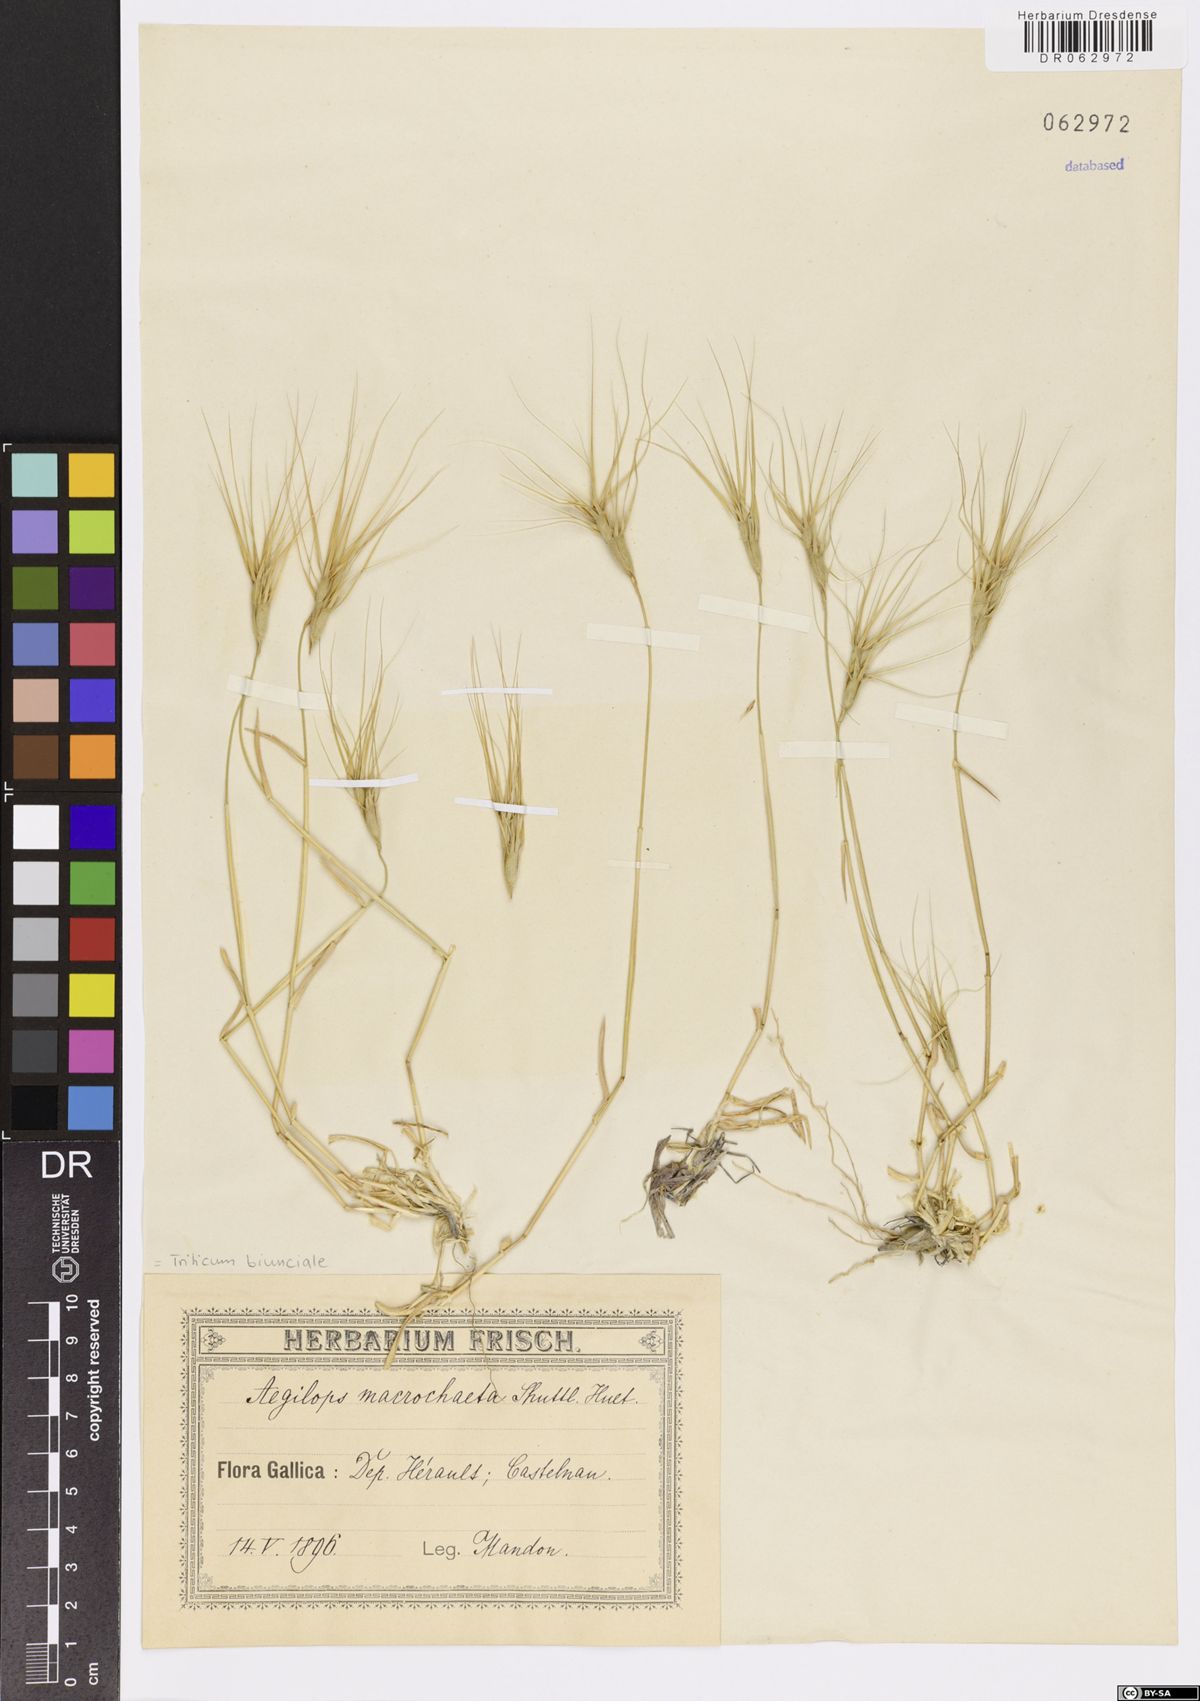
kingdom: Plantae
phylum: Tracheophyta
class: Liliopsida
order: Poales
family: Poaceae
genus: Aegilops
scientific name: Aegilops biuncialis
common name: Mediterranean aegilops
